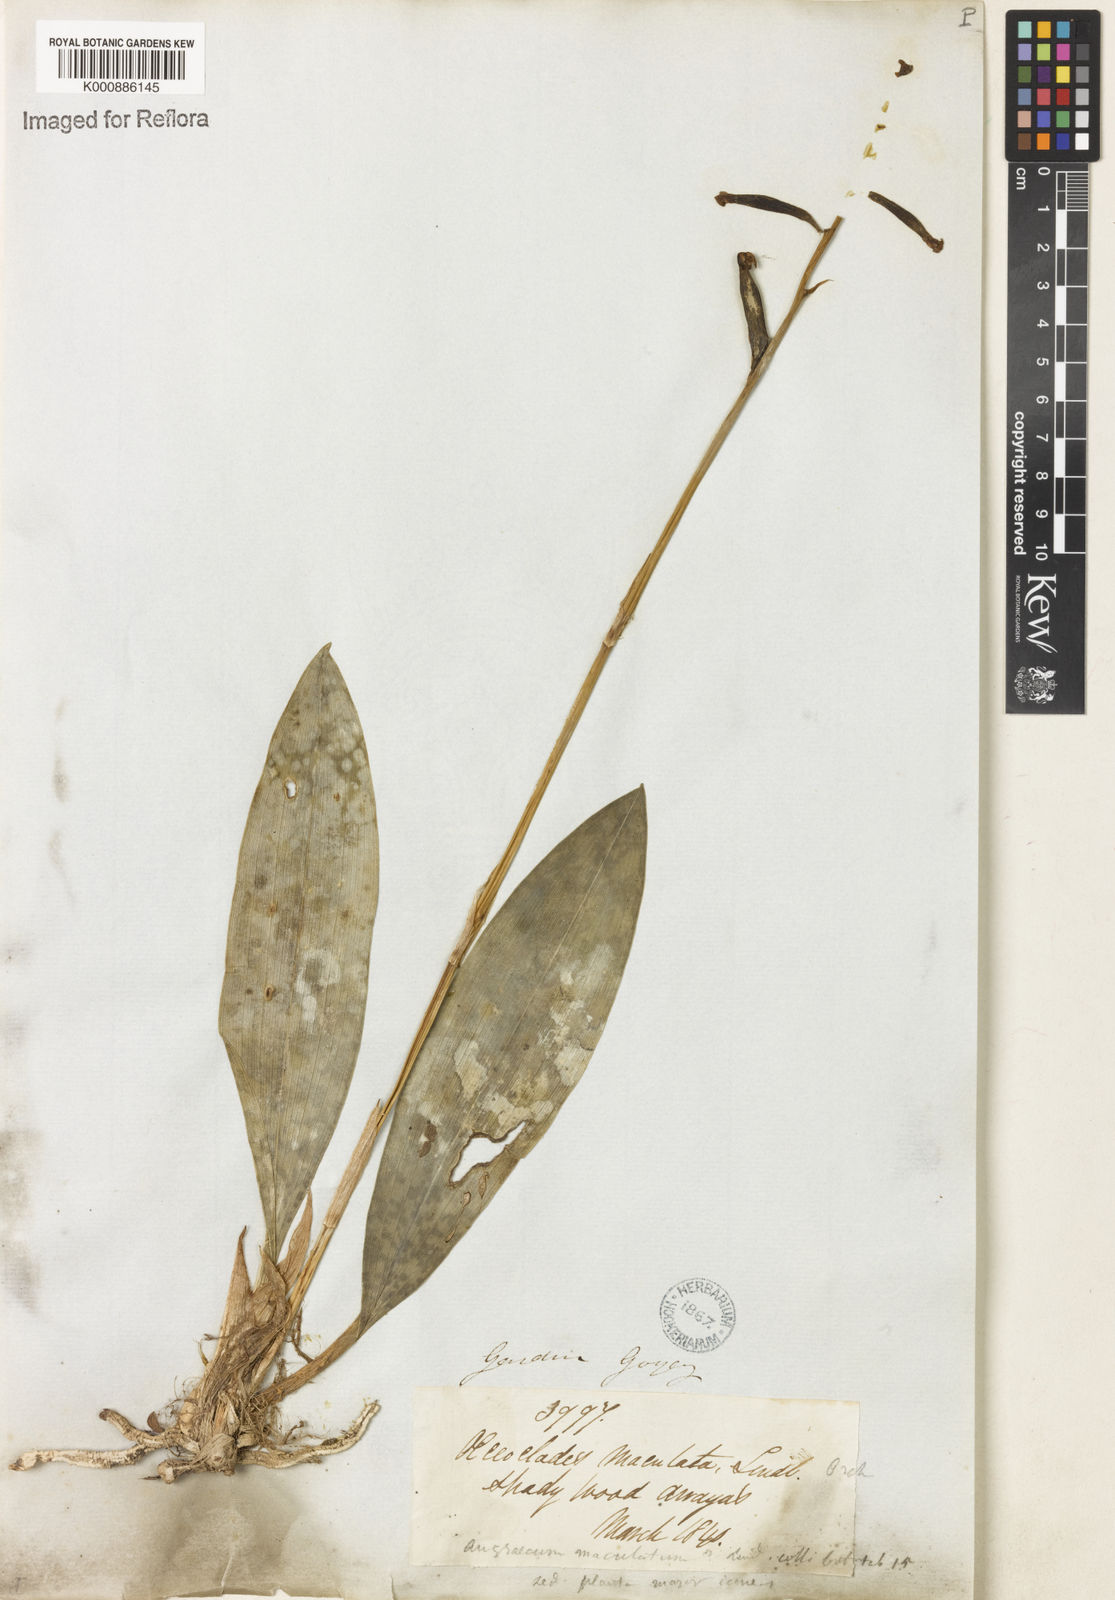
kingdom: Plantae
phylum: Tracheophyta
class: Liliopsida
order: Asparagales
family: Orchidaceae
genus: Eulophia
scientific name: Eulophia maculata
